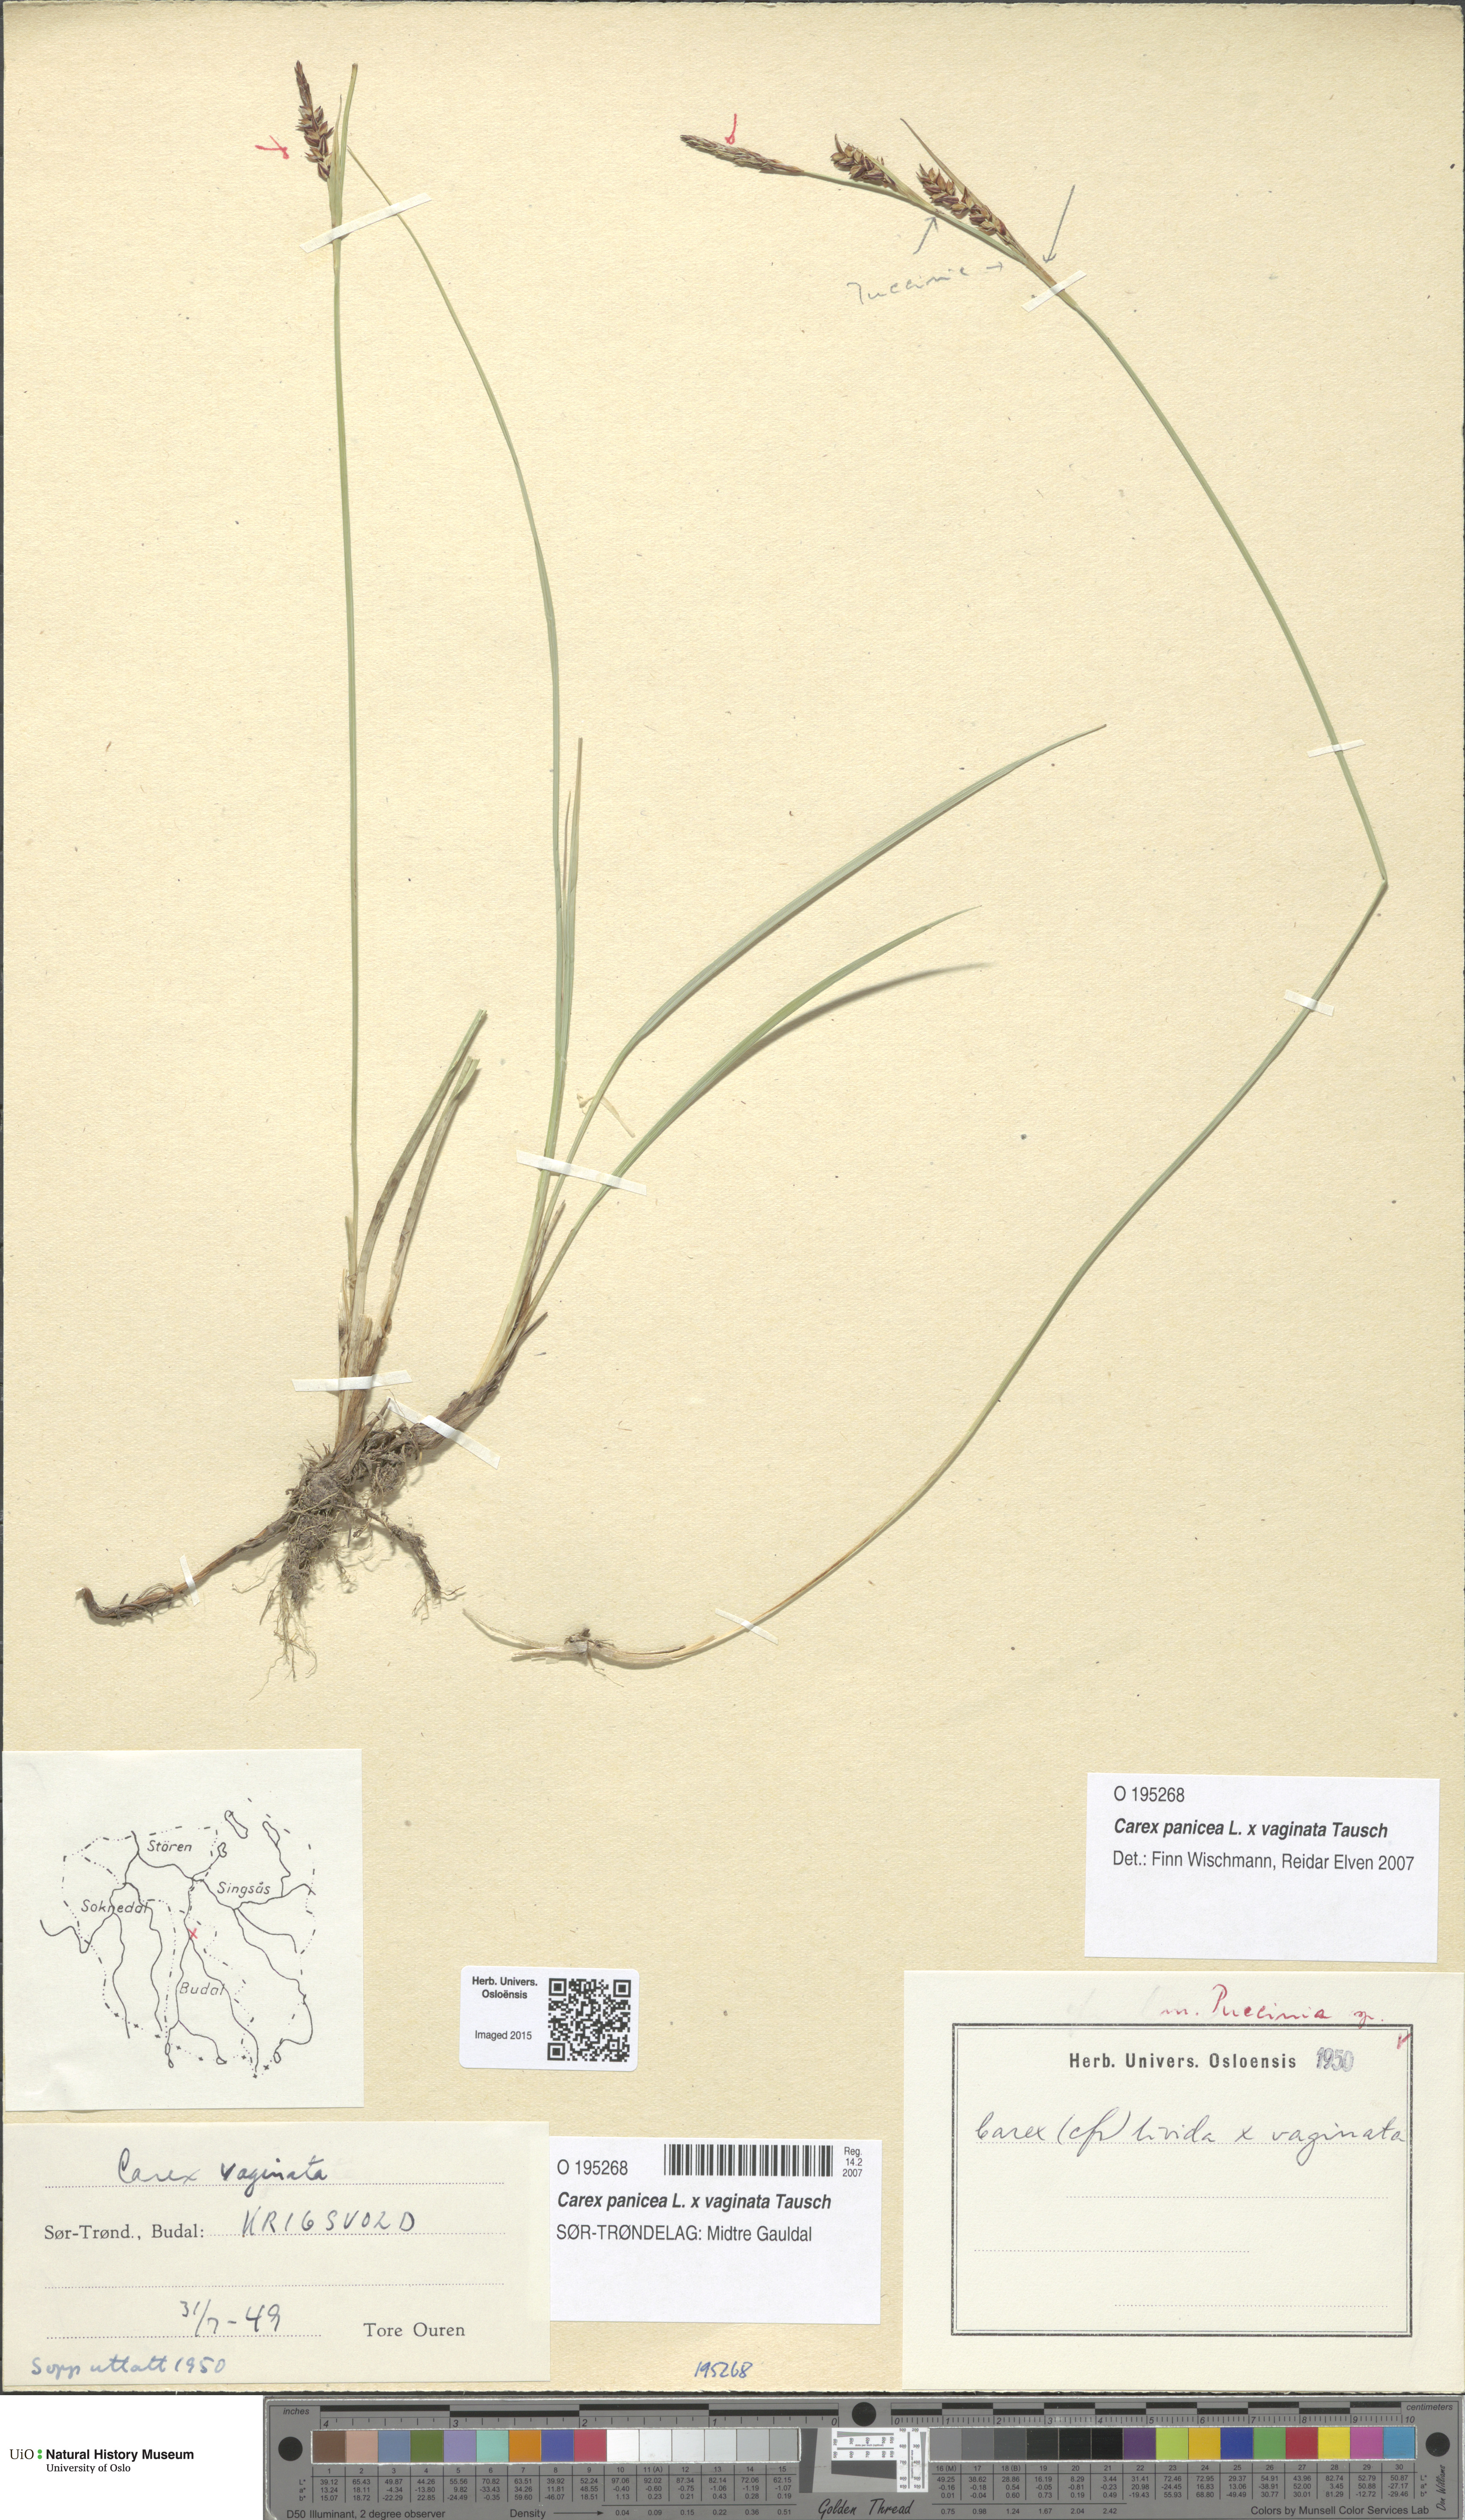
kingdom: Plantae
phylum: Tracheophyta
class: Liliopsida
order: Poales
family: Cyperaceae
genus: Carex
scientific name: Carex
